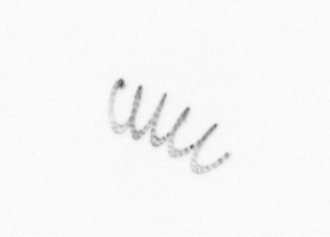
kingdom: Chromista
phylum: Ochrophyta
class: Bacillariophyceae
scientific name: Bacillariophyceae
